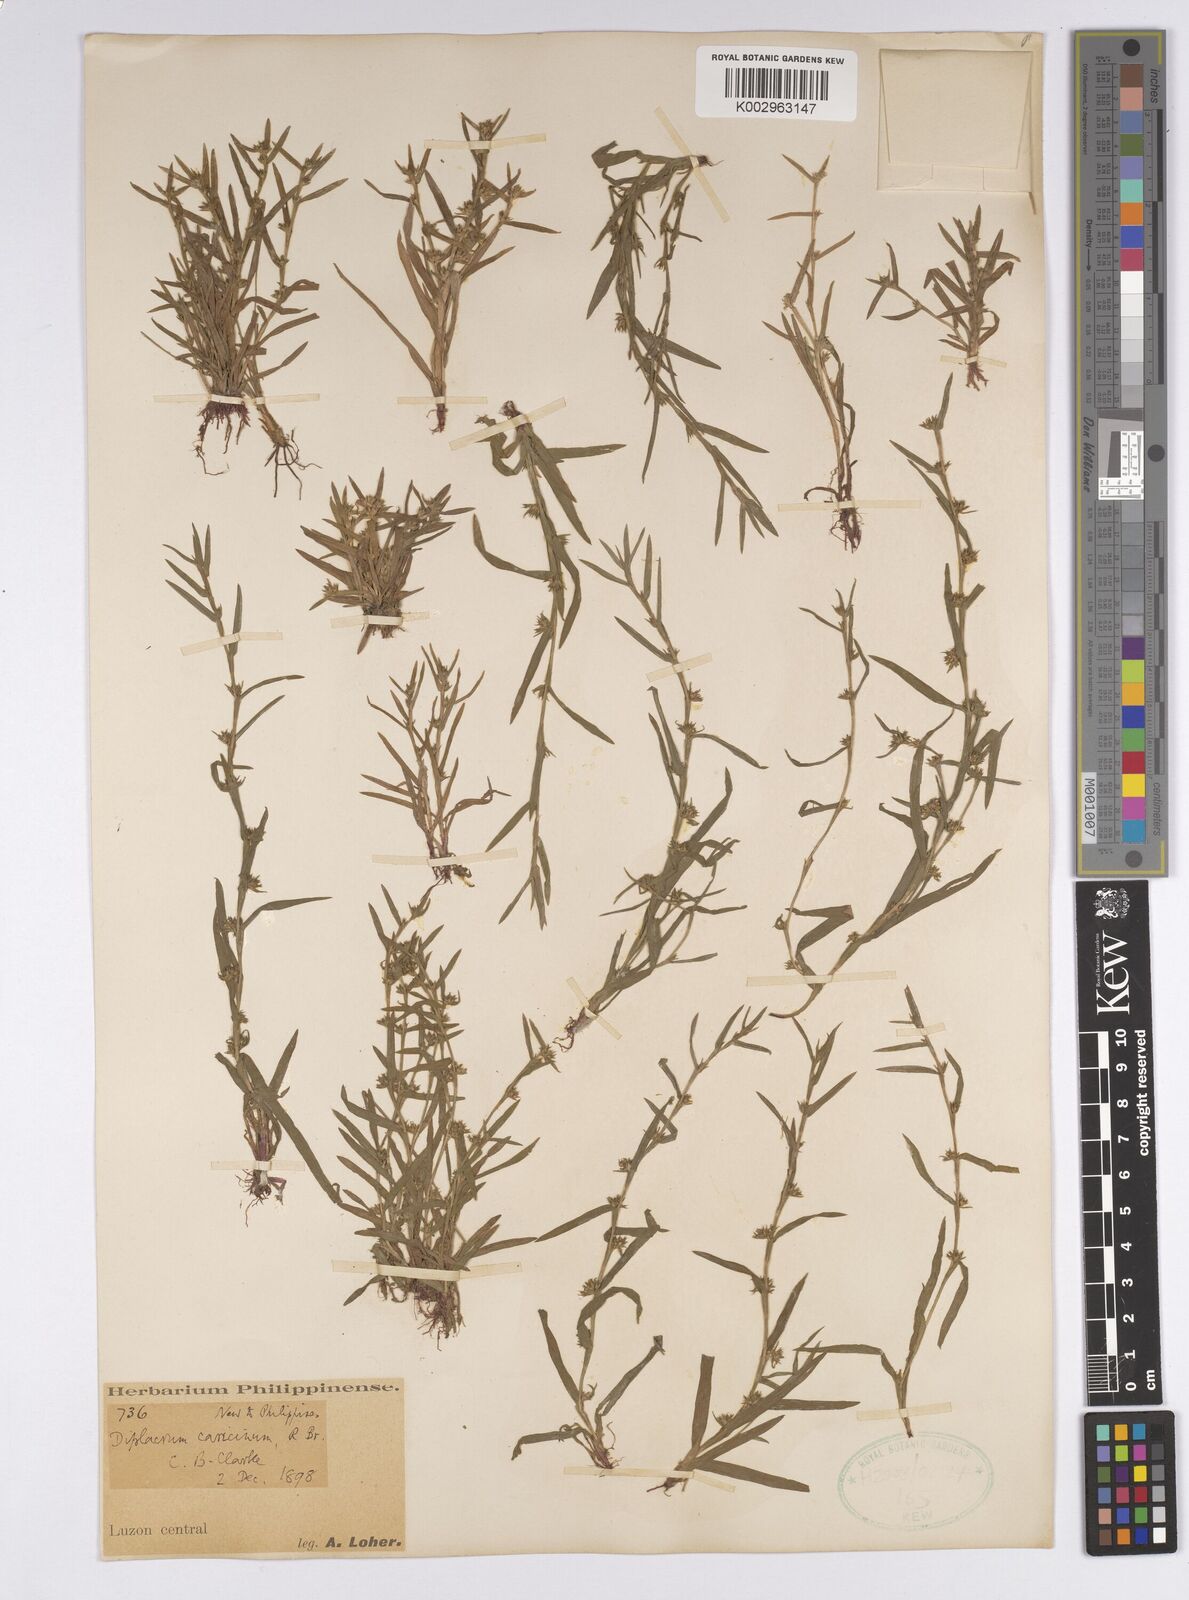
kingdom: Plantae
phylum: Tracheophyta
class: Liliopsida
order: Poales
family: Cyperaceae
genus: Diplacrum
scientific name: Diplacrum caricinum
